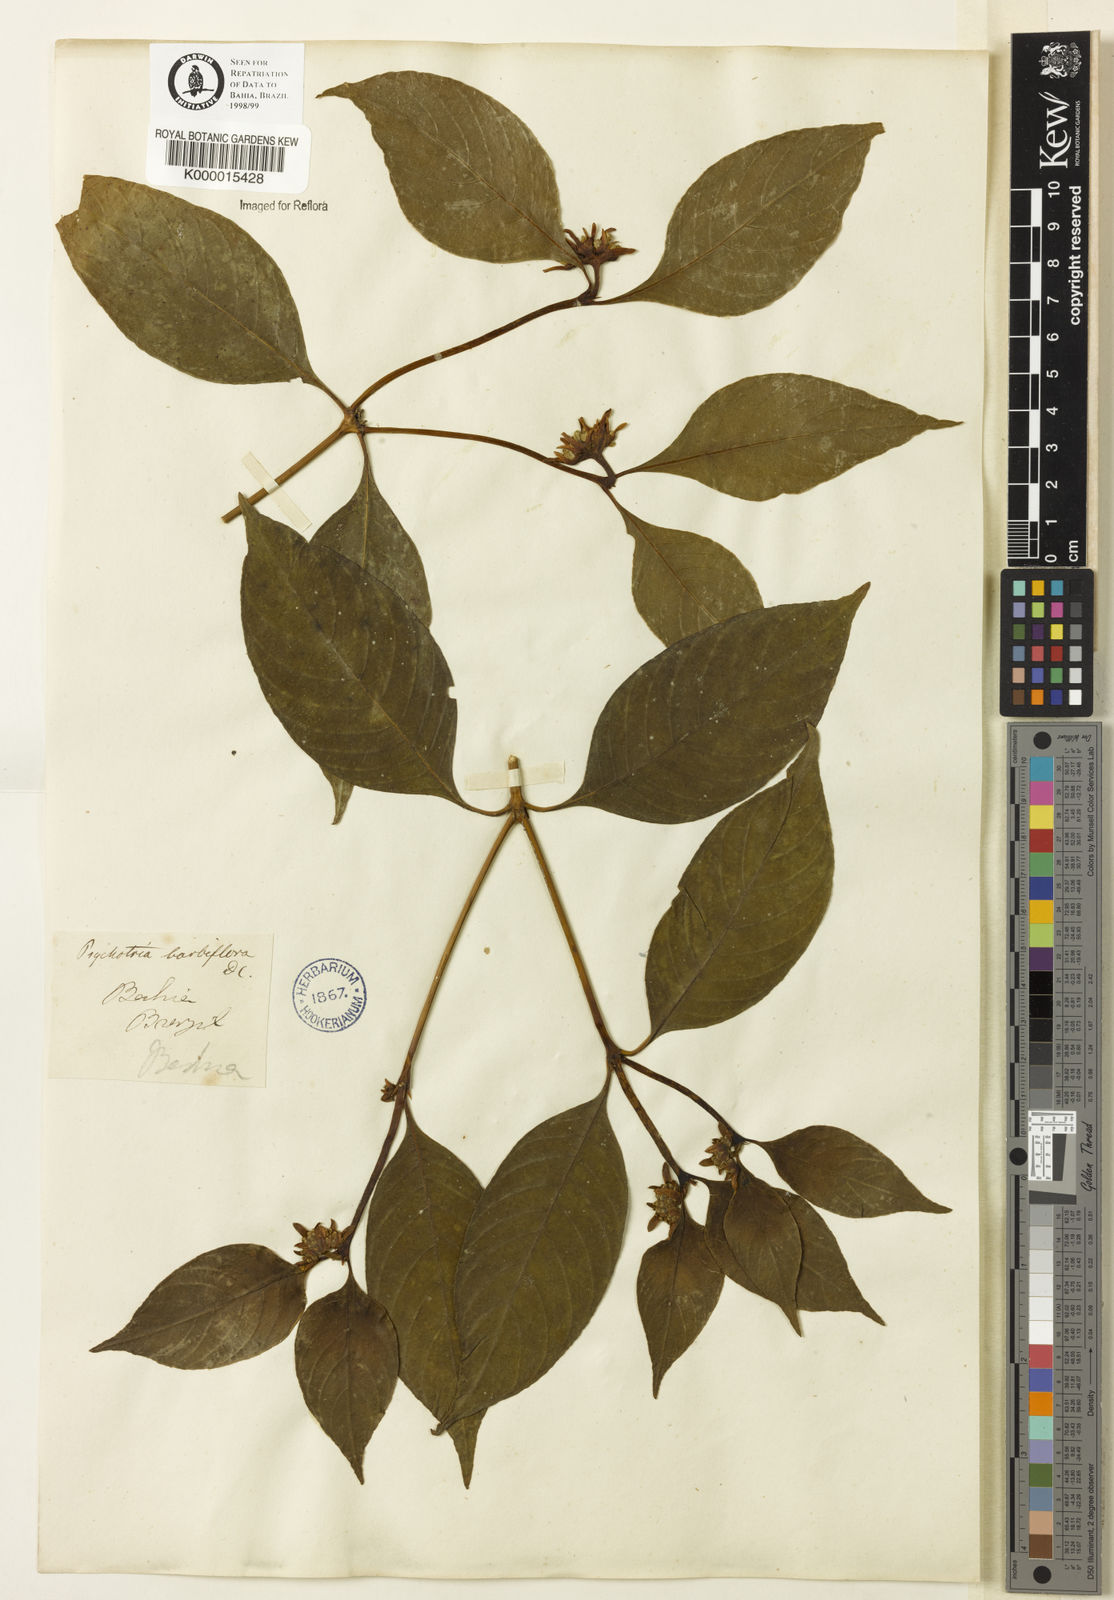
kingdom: Plantae
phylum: Tracheophyta
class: Magnoliopsida
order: Gentianales
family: Rubiaceae
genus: Palicourea
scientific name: Palicourea hoffmannseggiana
